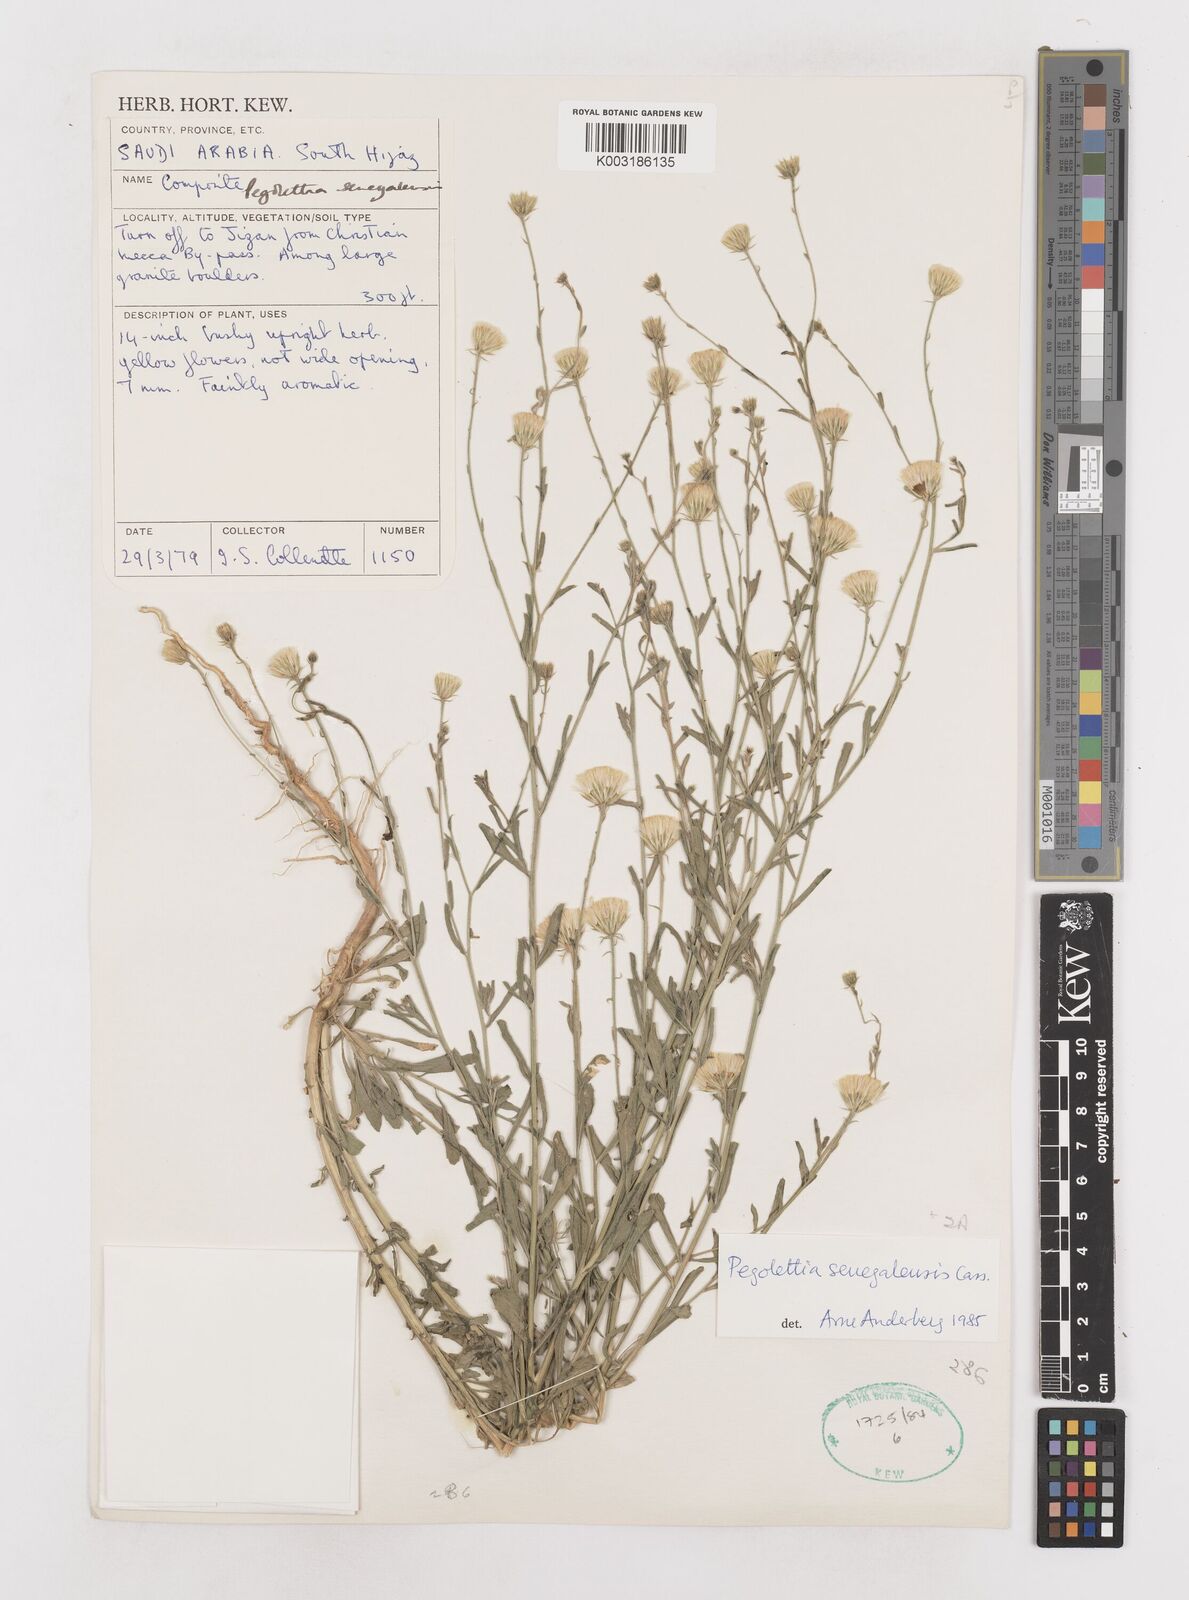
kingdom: Plantae
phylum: Tracheophyta
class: Magnoliopsida
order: Asterales
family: Asteraceae
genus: Pegolettia
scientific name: Pegolettia senegalensis
